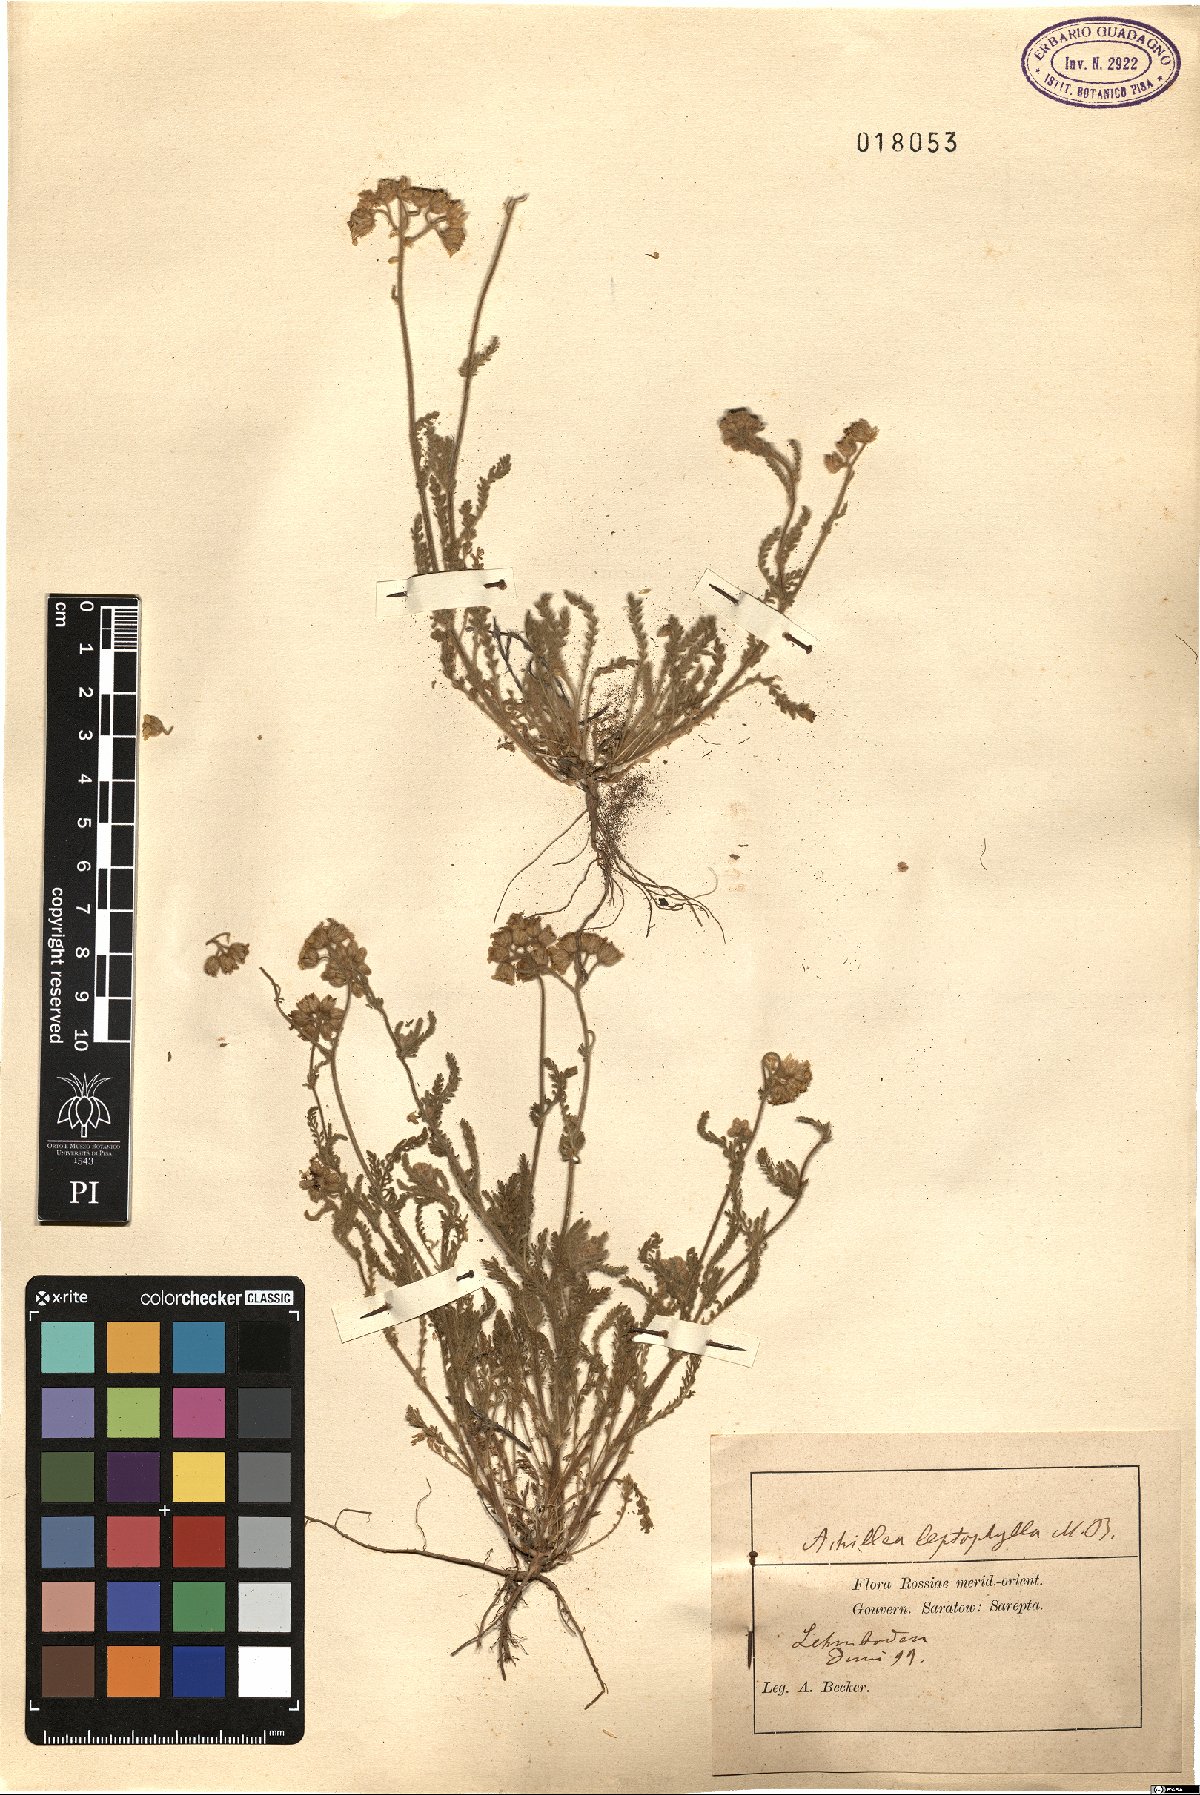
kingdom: Plantae
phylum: Tracheophyta
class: Magnoliopsida
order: Asterales
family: Asteraceae
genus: Achillea
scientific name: Achillea leptophylla
